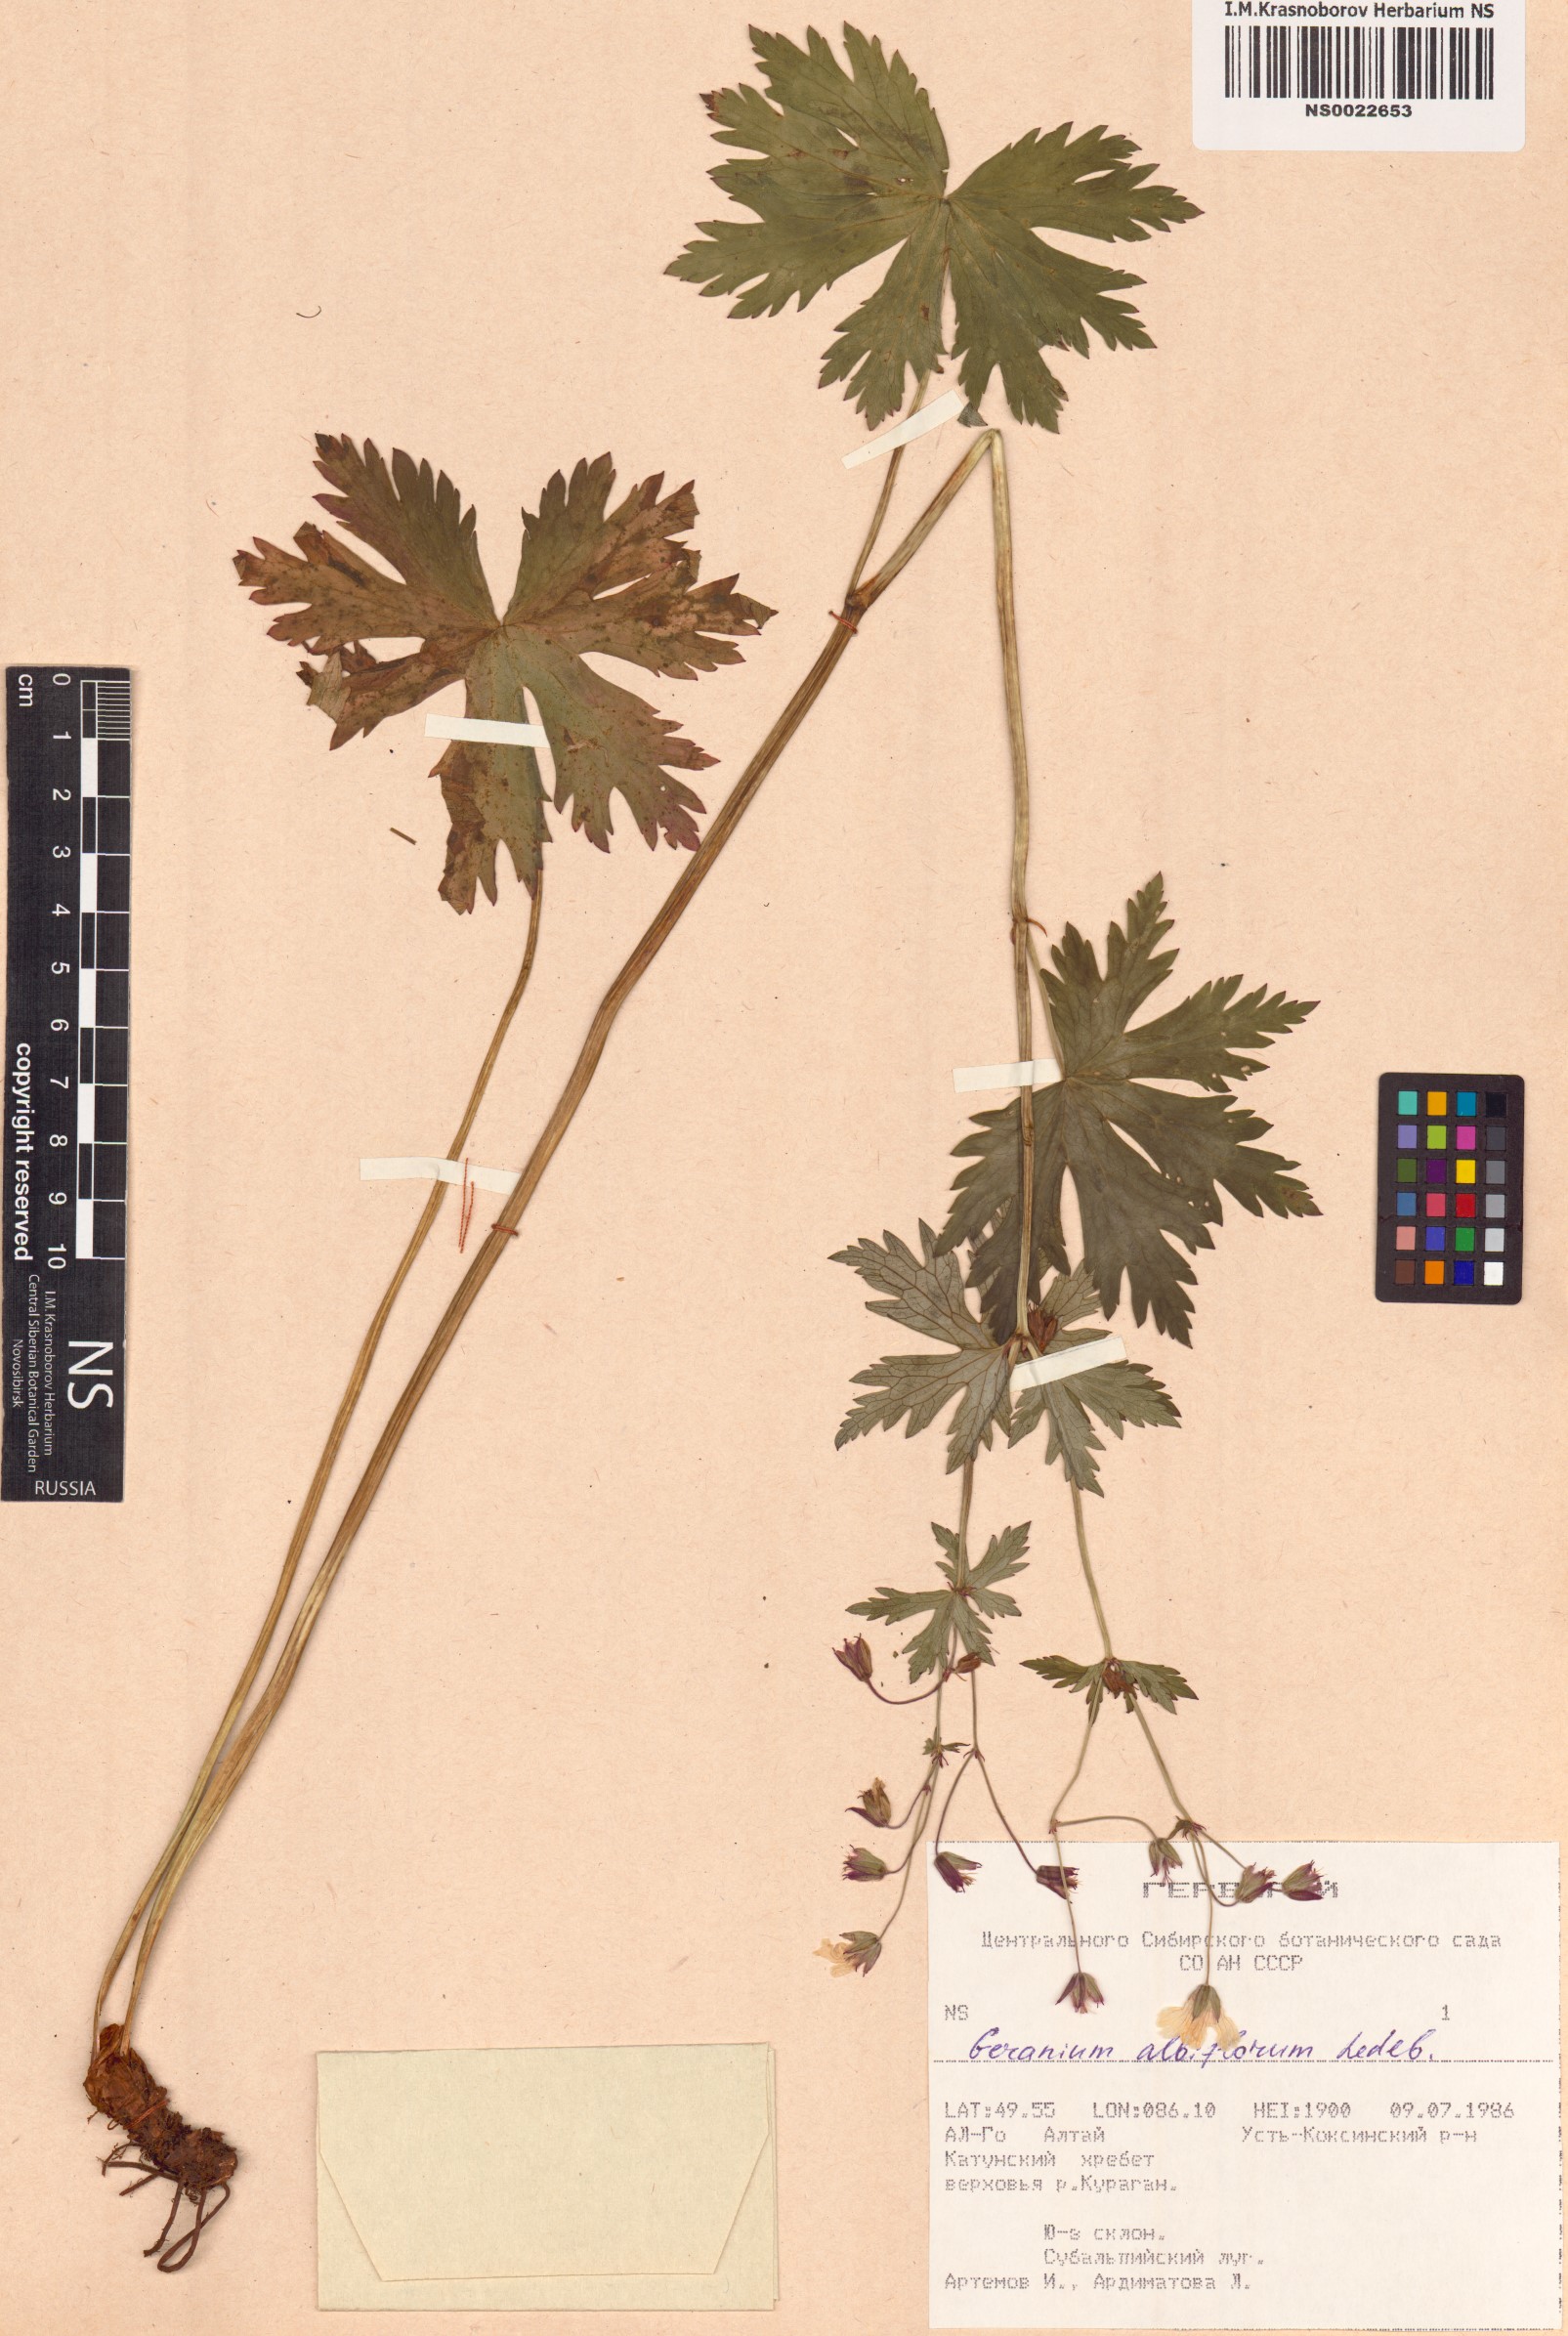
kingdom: Plantae
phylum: Tracheophyta
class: Magnoliopsida
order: Geraniales
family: Geraniaceae
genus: Geranium
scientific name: Geranium albiflorum
